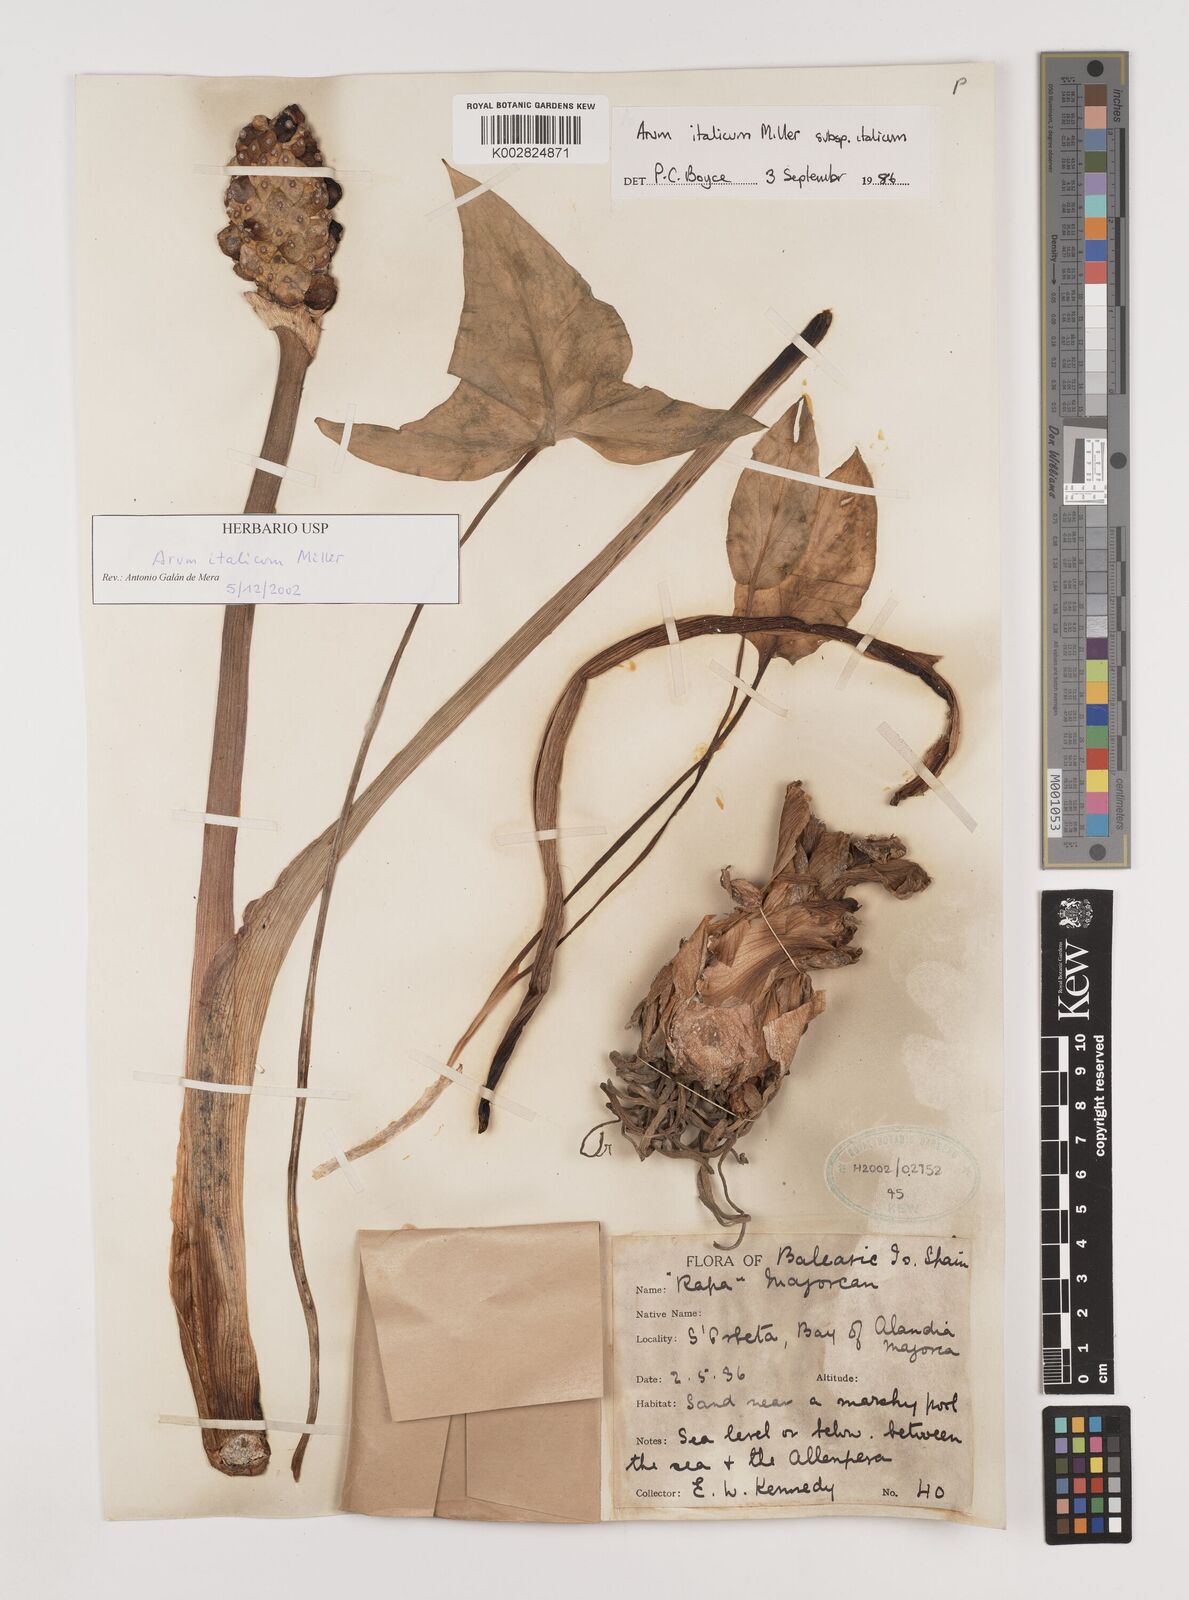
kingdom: Plantae
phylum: Tracheophyta
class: Liliopsida
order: Alismatales
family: Araceae
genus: Arum
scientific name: Arum italicum
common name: Italian lords-and-ladies
